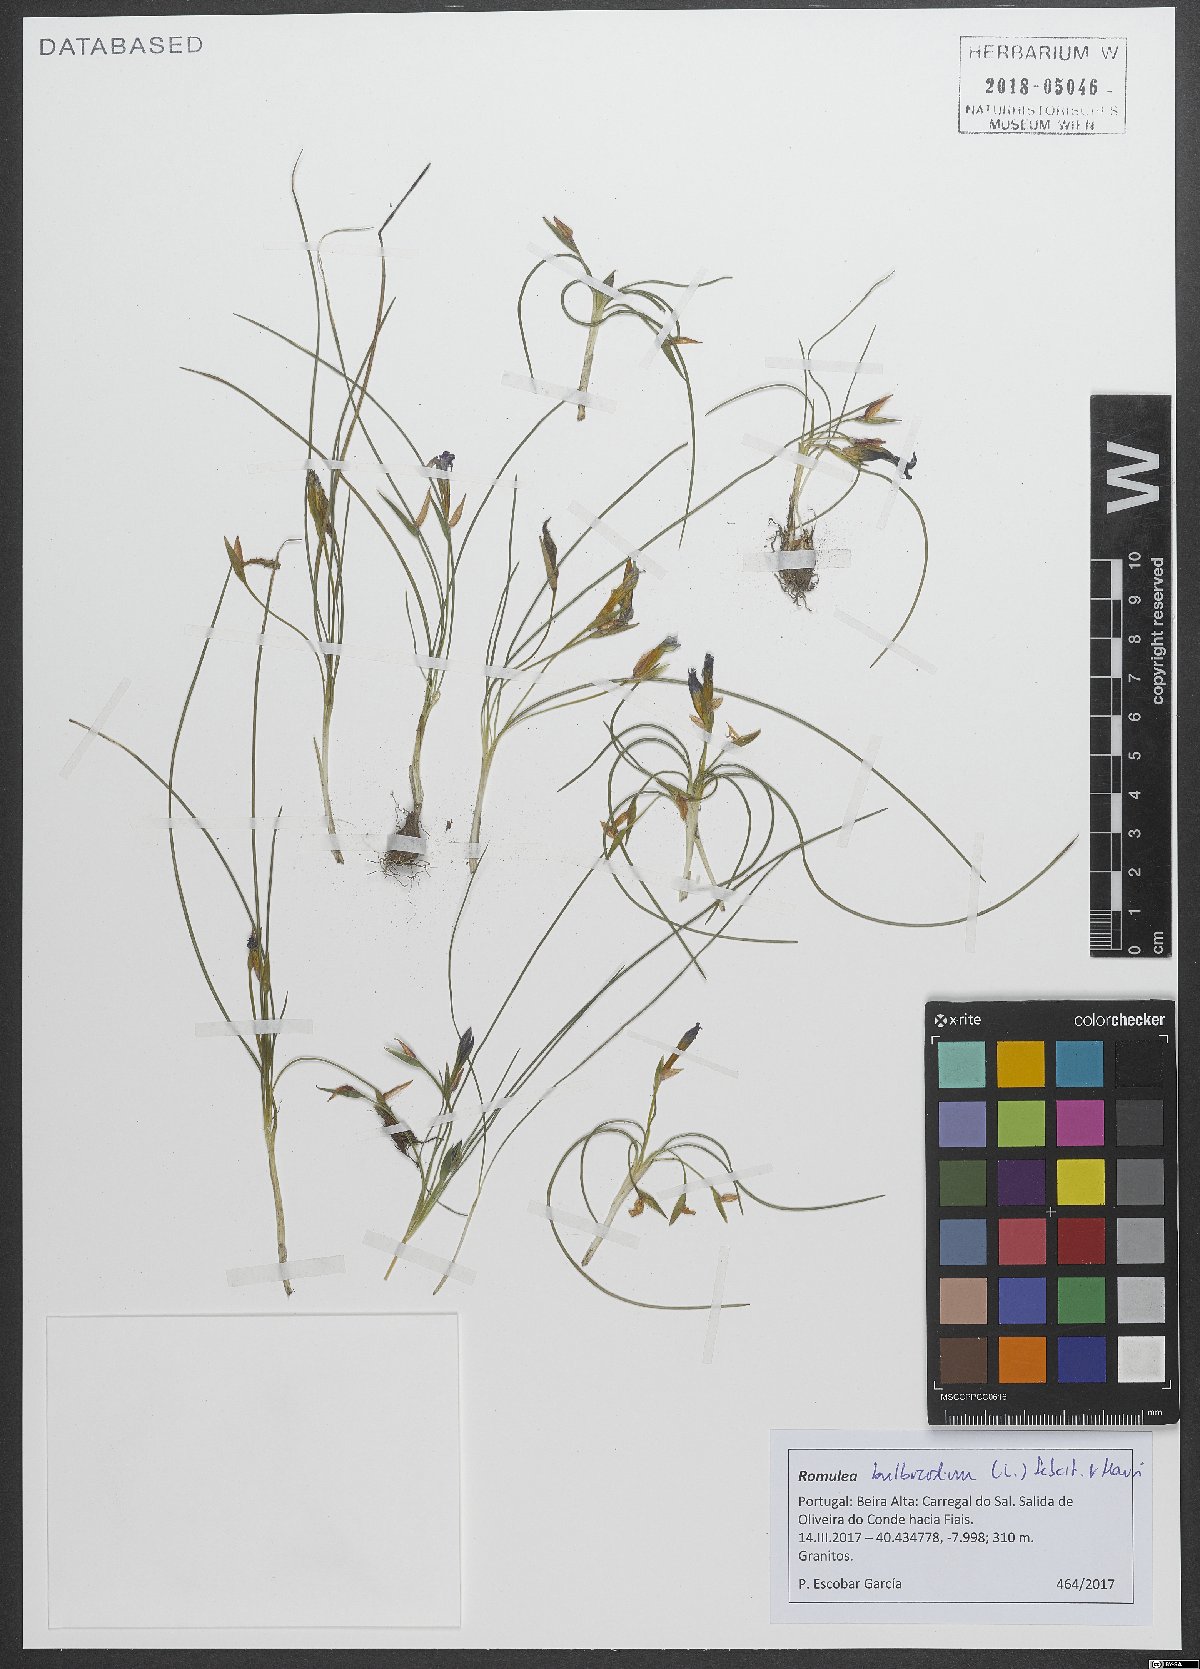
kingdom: Plantae
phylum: Tracheophyta
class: Liliopsida
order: Asparagales
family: Iridaceae
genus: Romulea
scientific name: Romulea bulbocodium
